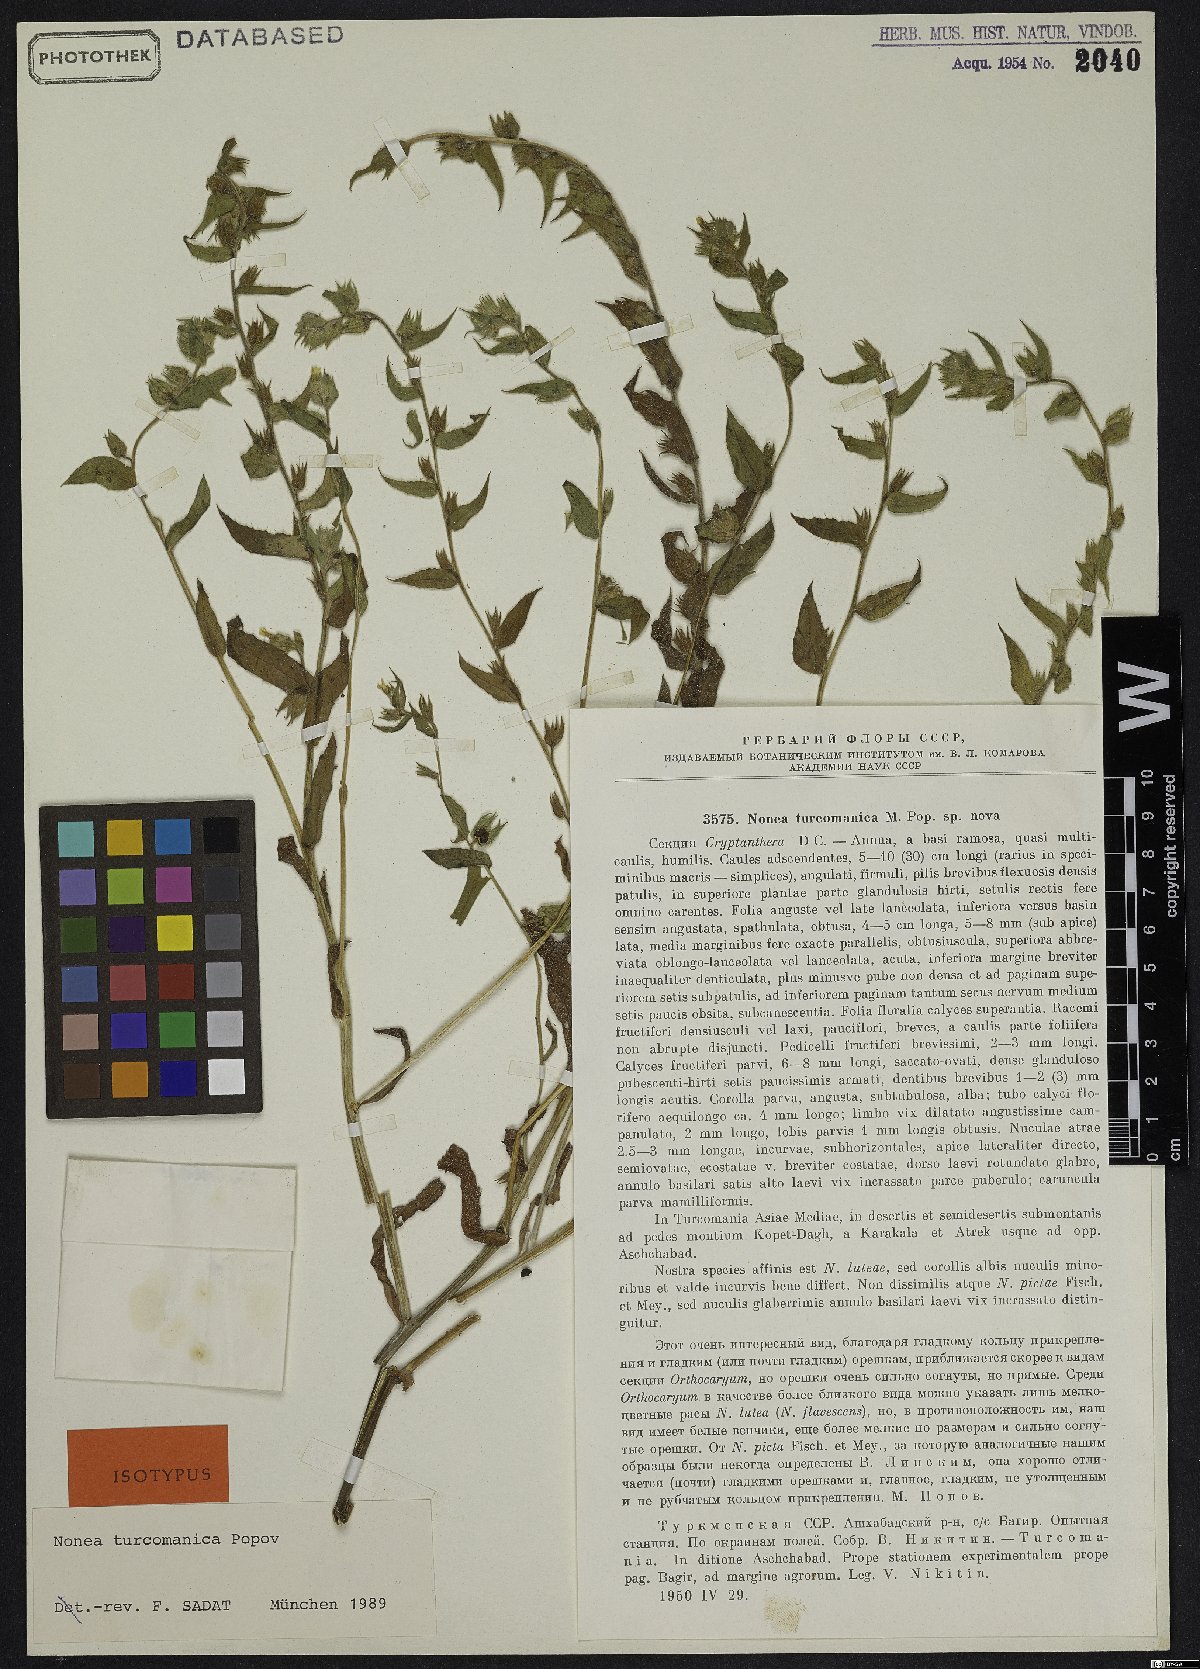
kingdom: Plantae
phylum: Tracheophyta
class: Magnoliopsida
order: Boraginales
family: Boraginaceae
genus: Nonea
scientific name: Nonea turcomanica
